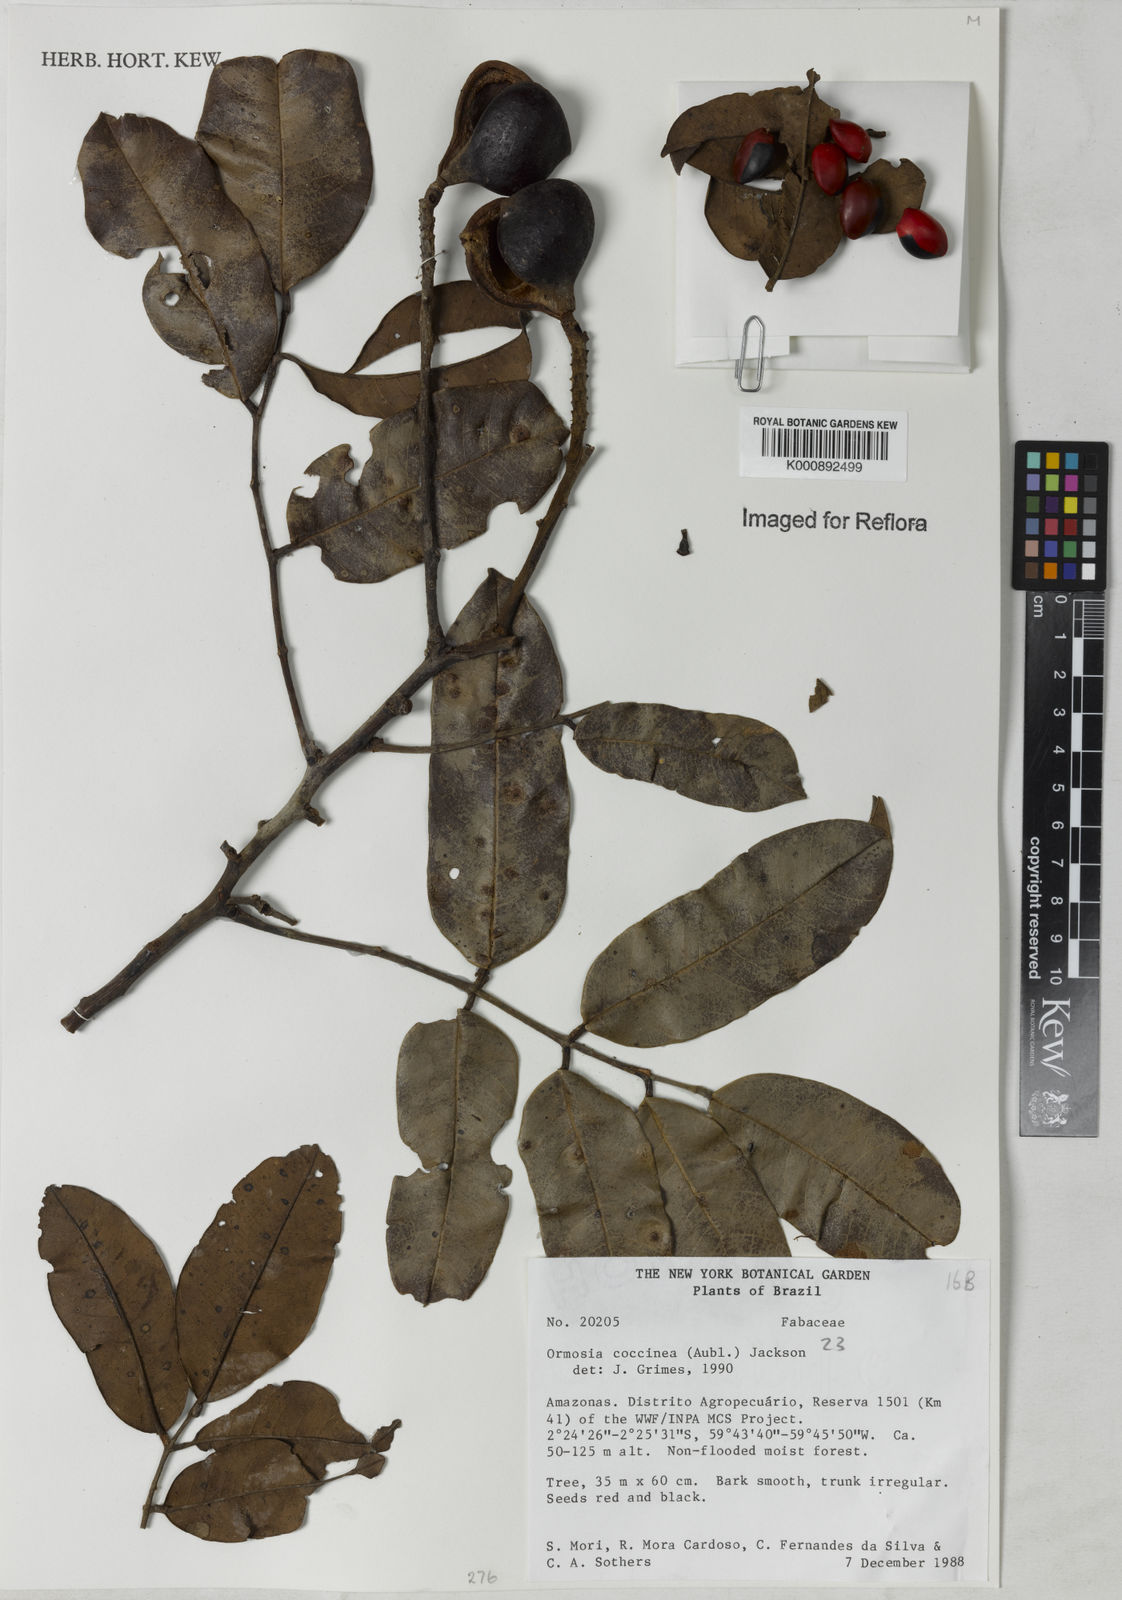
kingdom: Plantae
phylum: Tracheophyta
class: Magnoliopsida
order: Fabales
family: Fabaceae
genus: Ormosia
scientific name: Ormosia coccinea
